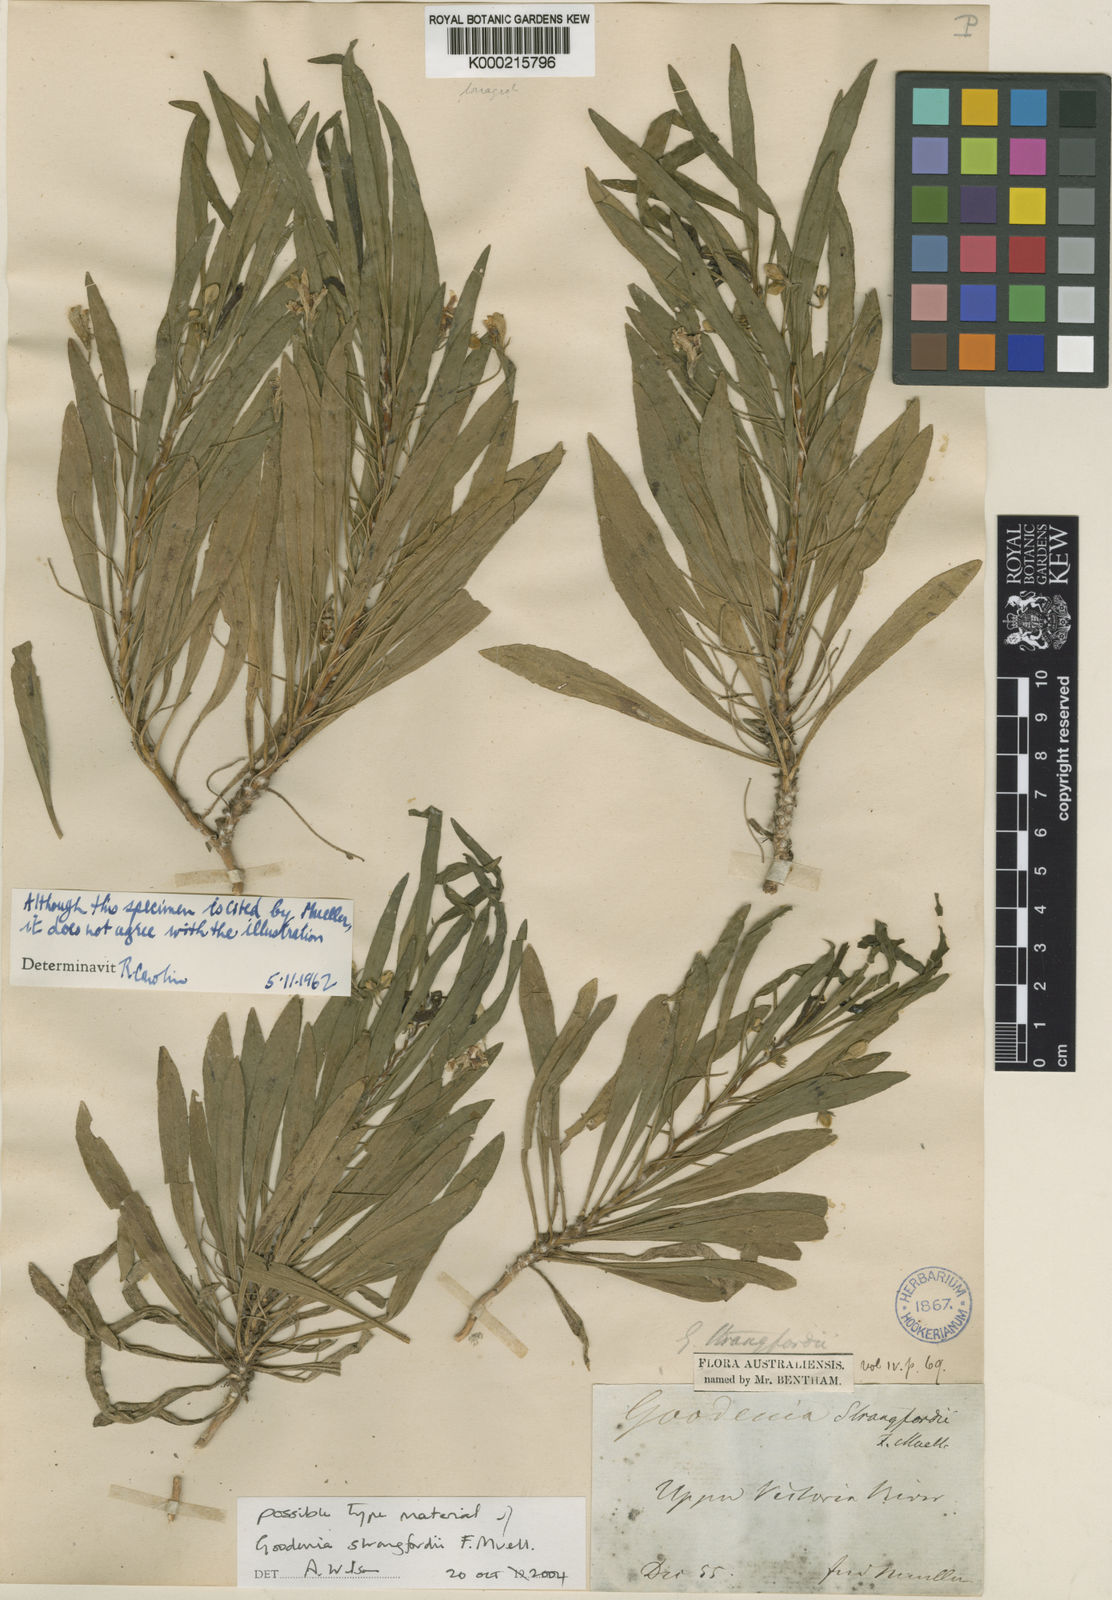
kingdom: Plantae
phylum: Tracheophyta
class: Magnoliopsida
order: Asterales
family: Goodeniaceae
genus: Goodenia
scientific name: Goodenia strangfordii
